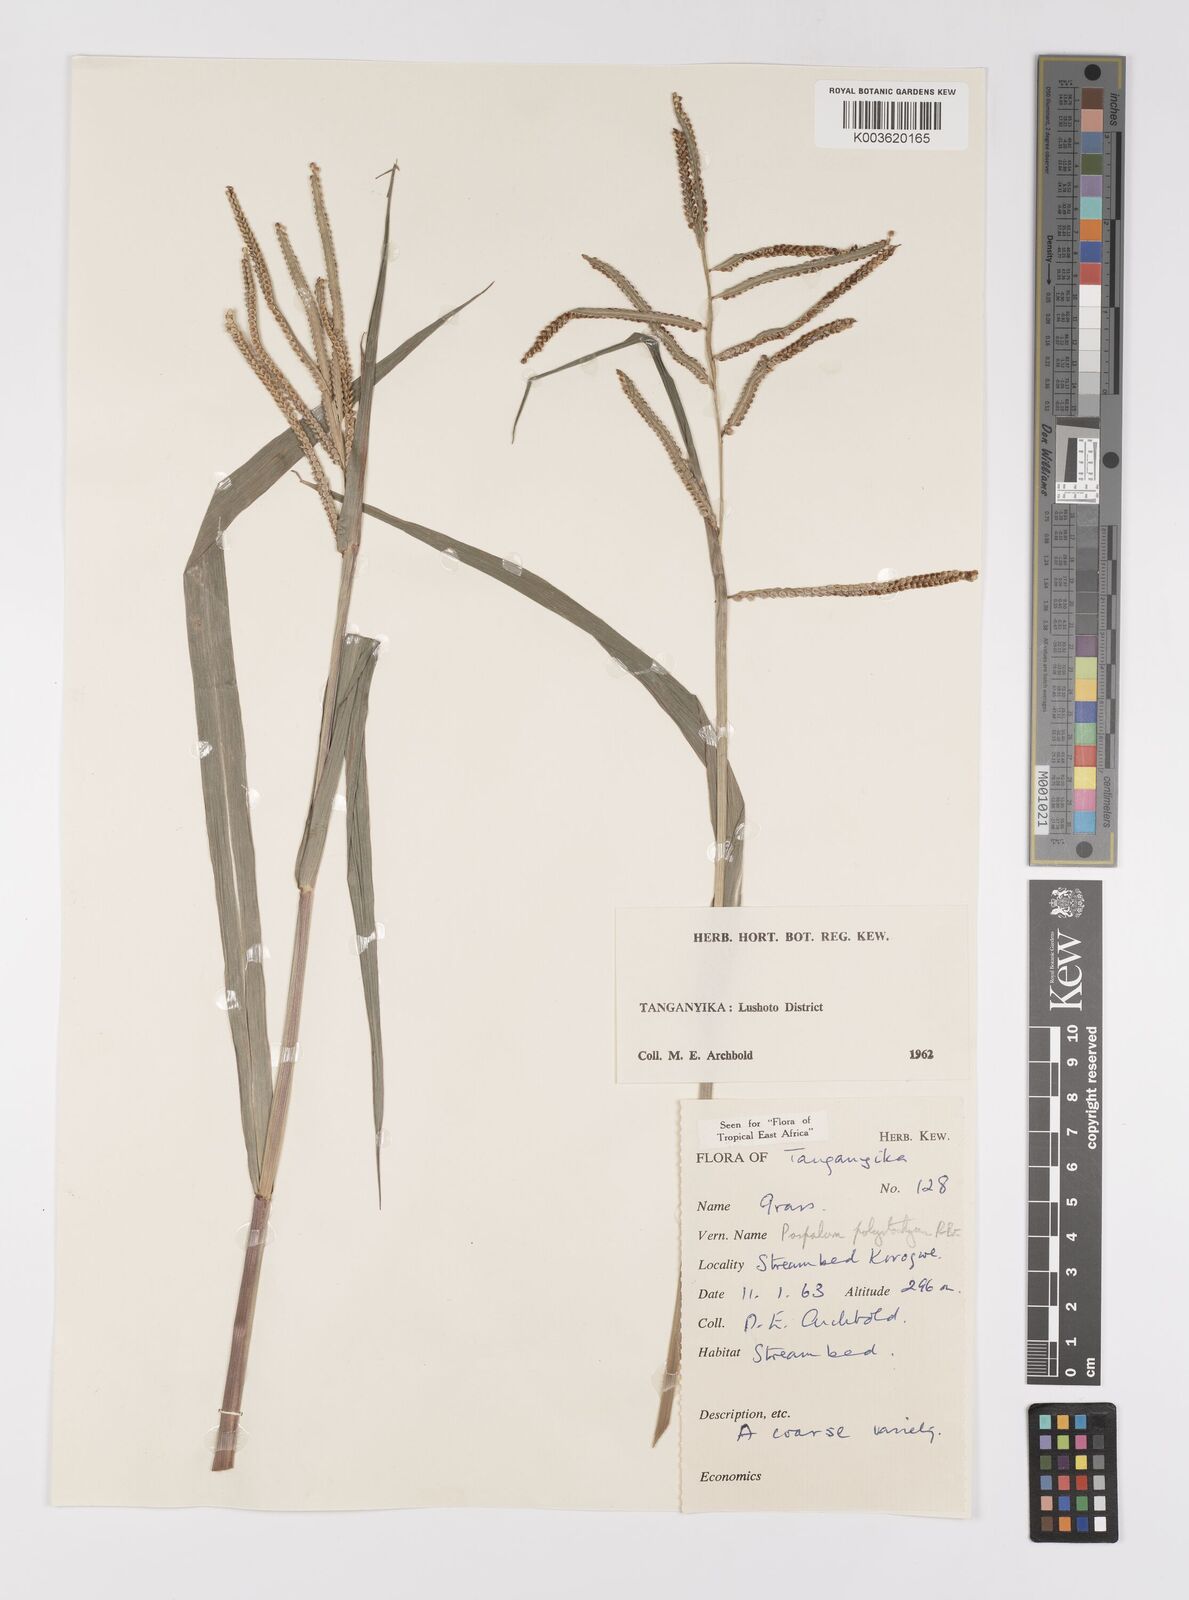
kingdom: Plantae
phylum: Tracheophyta
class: Liliopsida
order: Poales
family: Poaceae
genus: Paspalum
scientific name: Paspalum scrobiculatum
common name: Kodo millet
